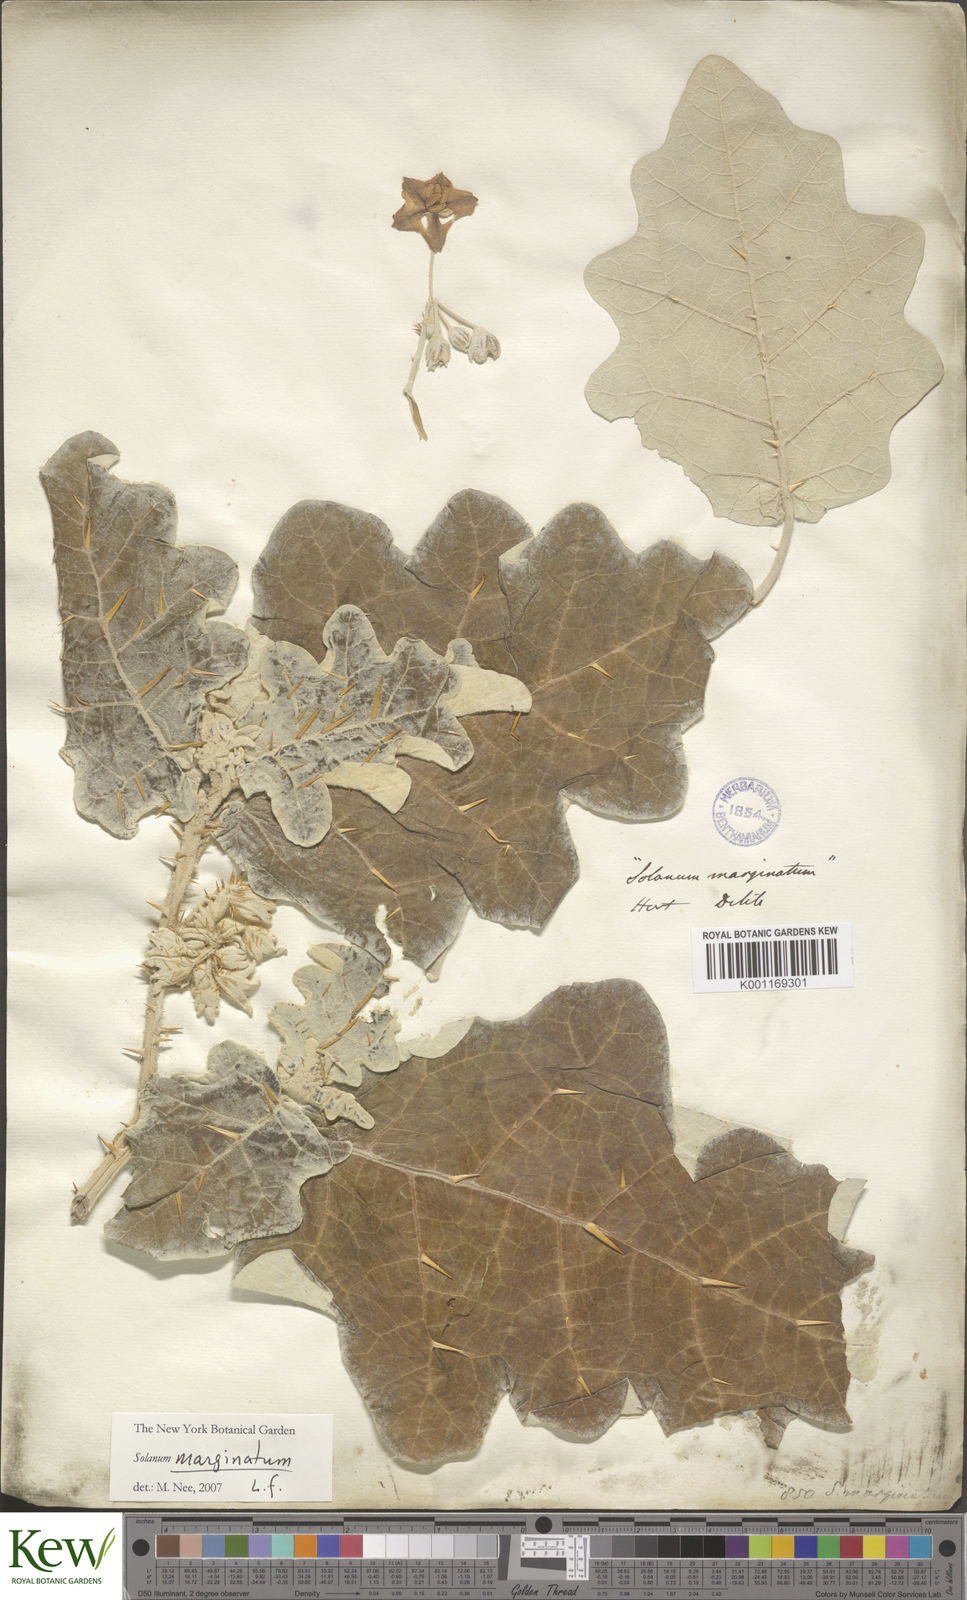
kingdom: Plantae
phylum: Tracheophyta
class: Magnoliopsida
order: Solanales
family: Solanaceae
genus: Solanum
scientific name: Solanum marginatum
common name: Purple african nightshade
